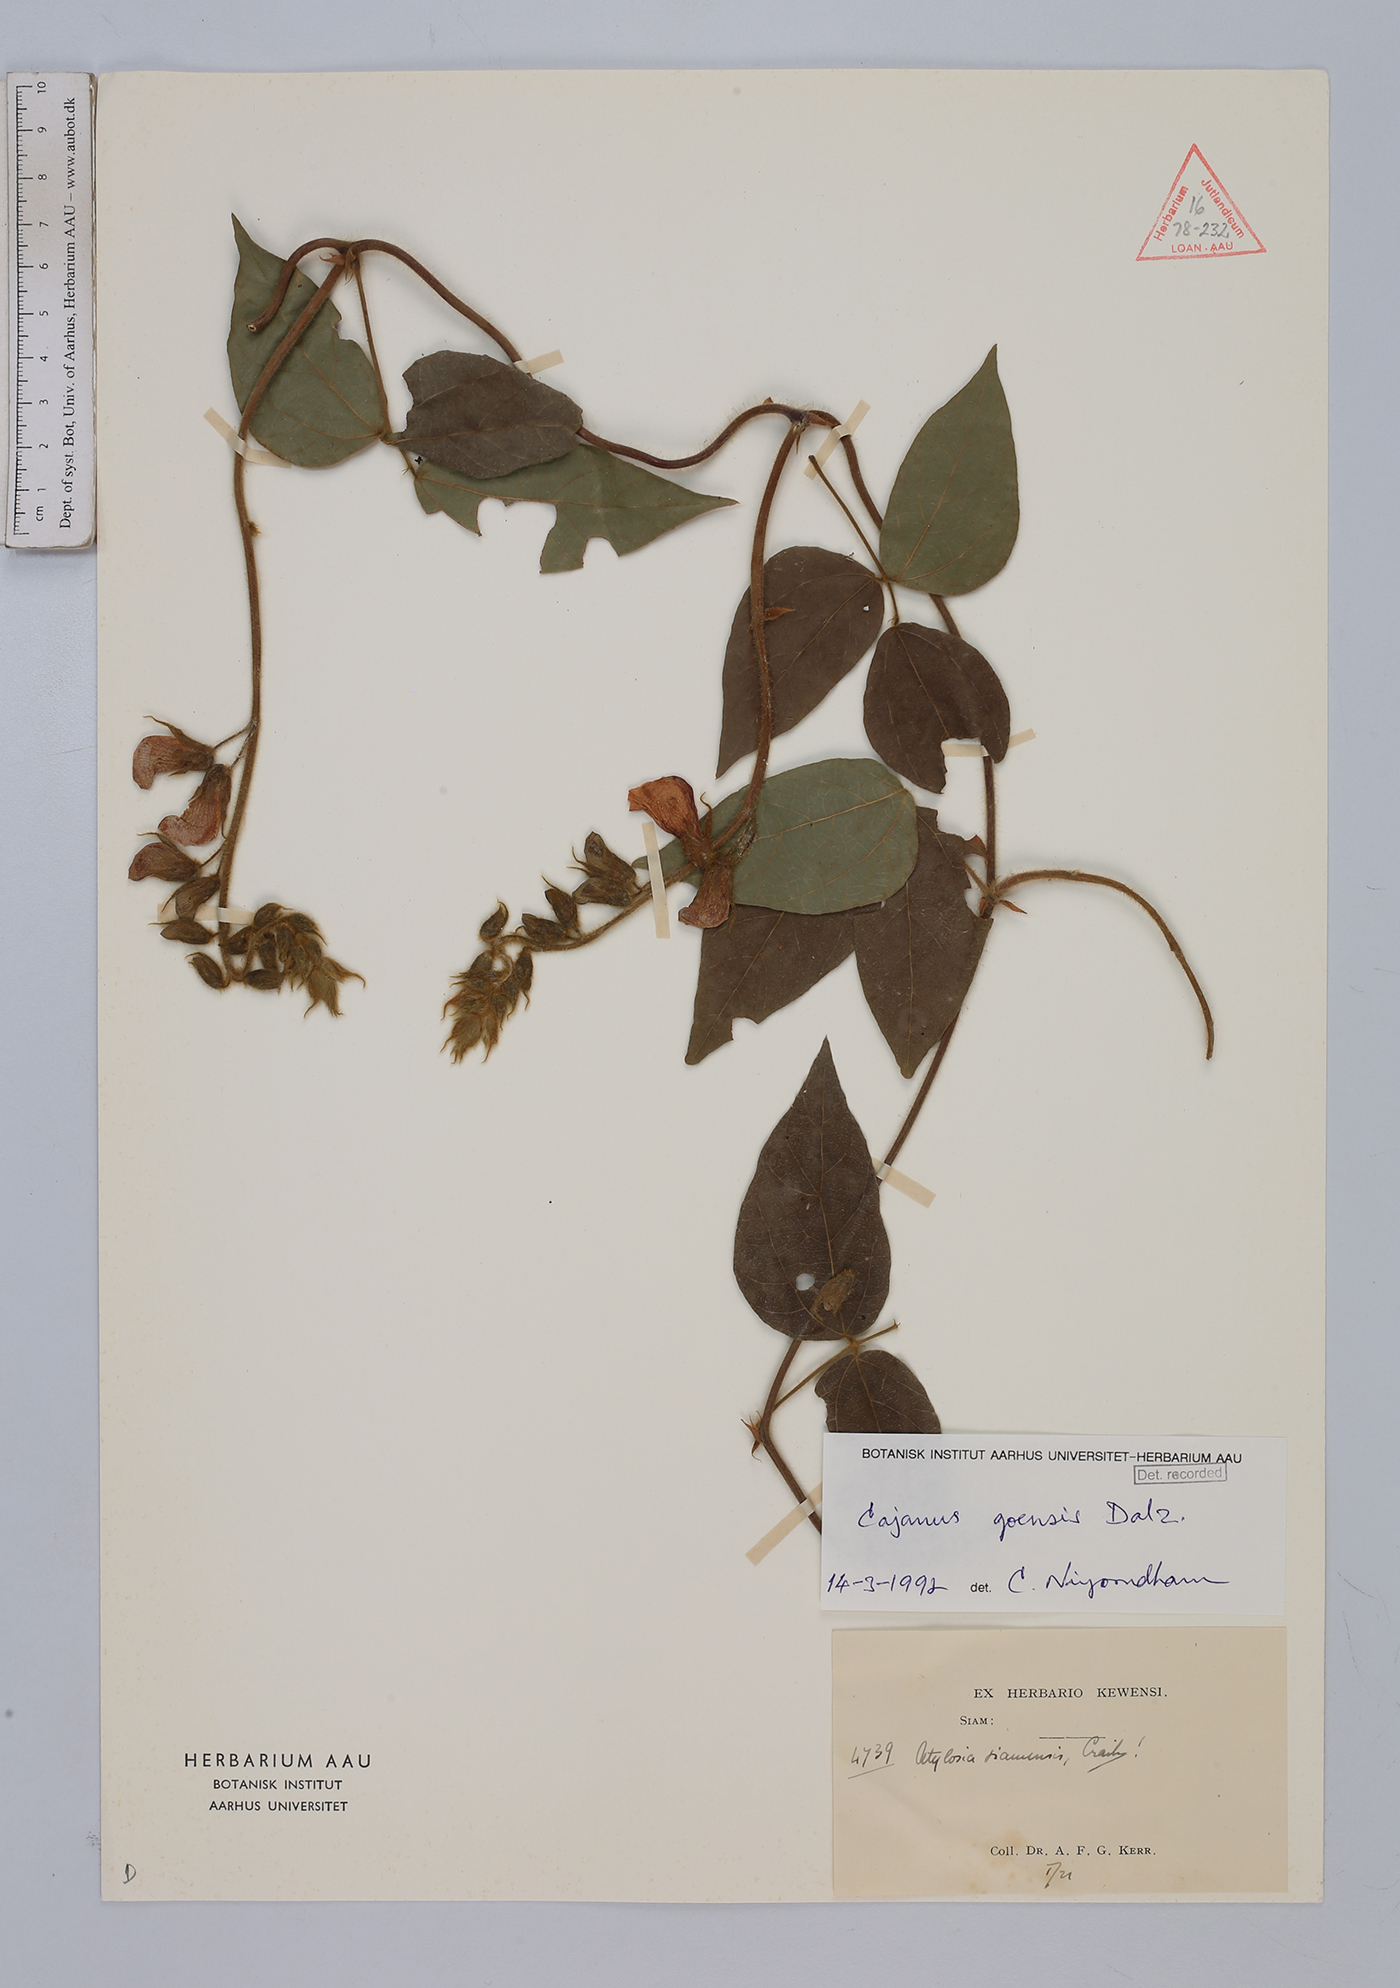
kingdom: Plantae
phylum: Tracheophyta
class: Magnoliopsida
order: Fabales
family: Fabaceae
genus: Cajanus
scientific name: Cajanus goensis
